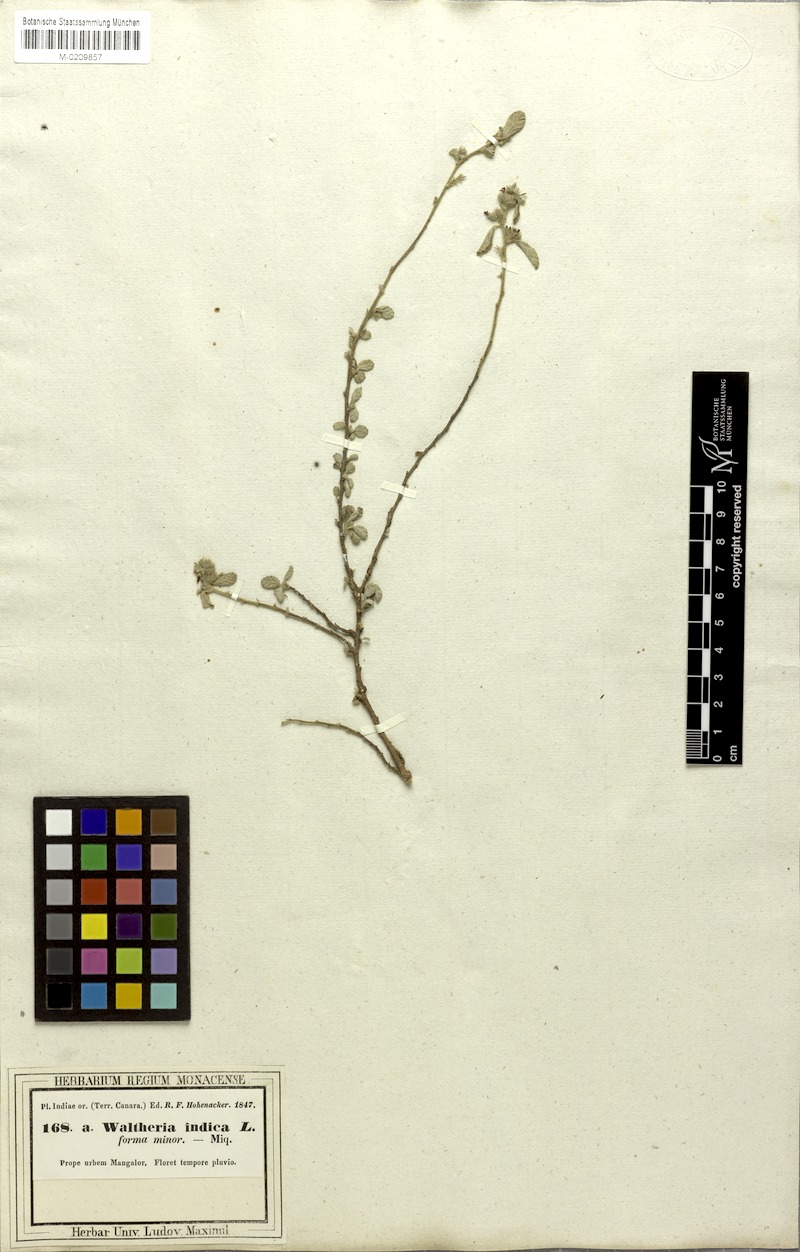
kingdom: Plantae
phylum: Tracheophyta
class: Magnoliopsida
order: Malvales
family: Malvaceae
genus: Waltheria
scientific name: Waltheria indica
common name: Leather-coat
